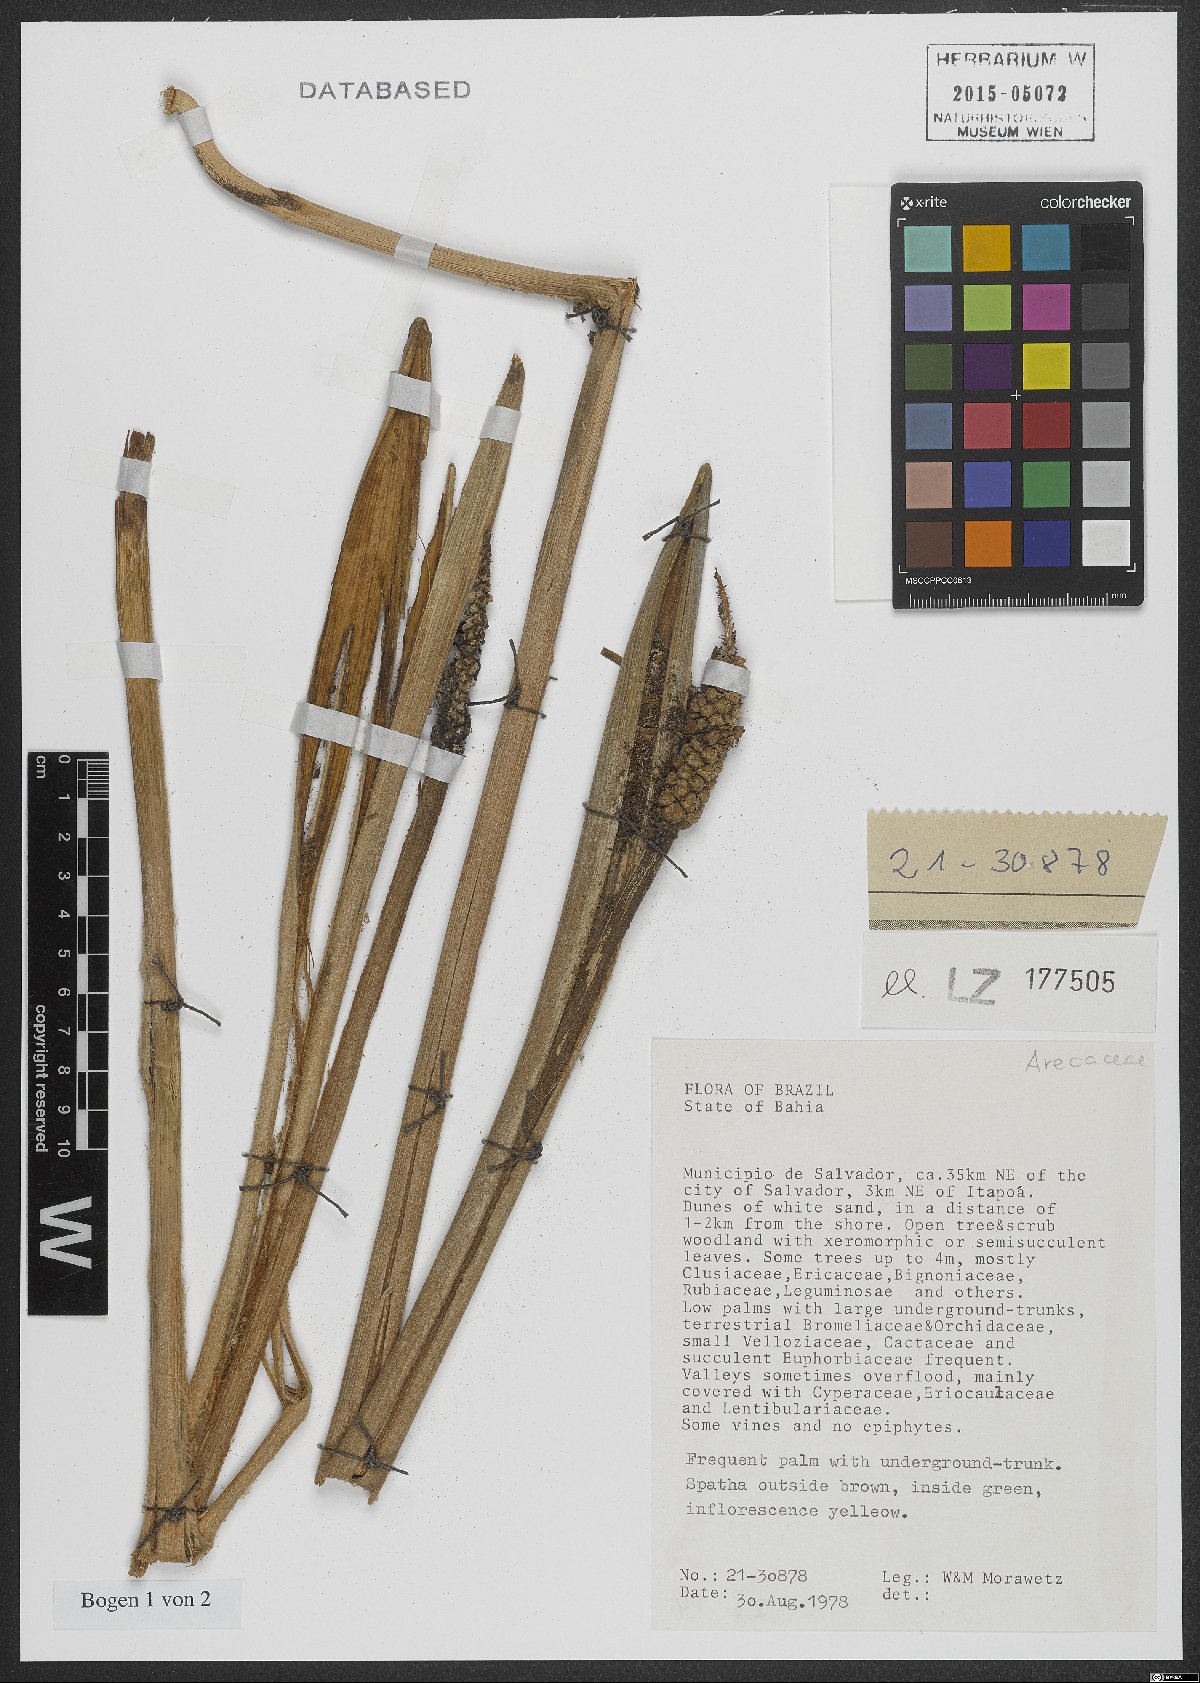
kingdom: Plantae
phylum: Tracheophyta
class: Liliopsida
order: Arecales
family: Arecaceae
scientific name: Arecaceae
